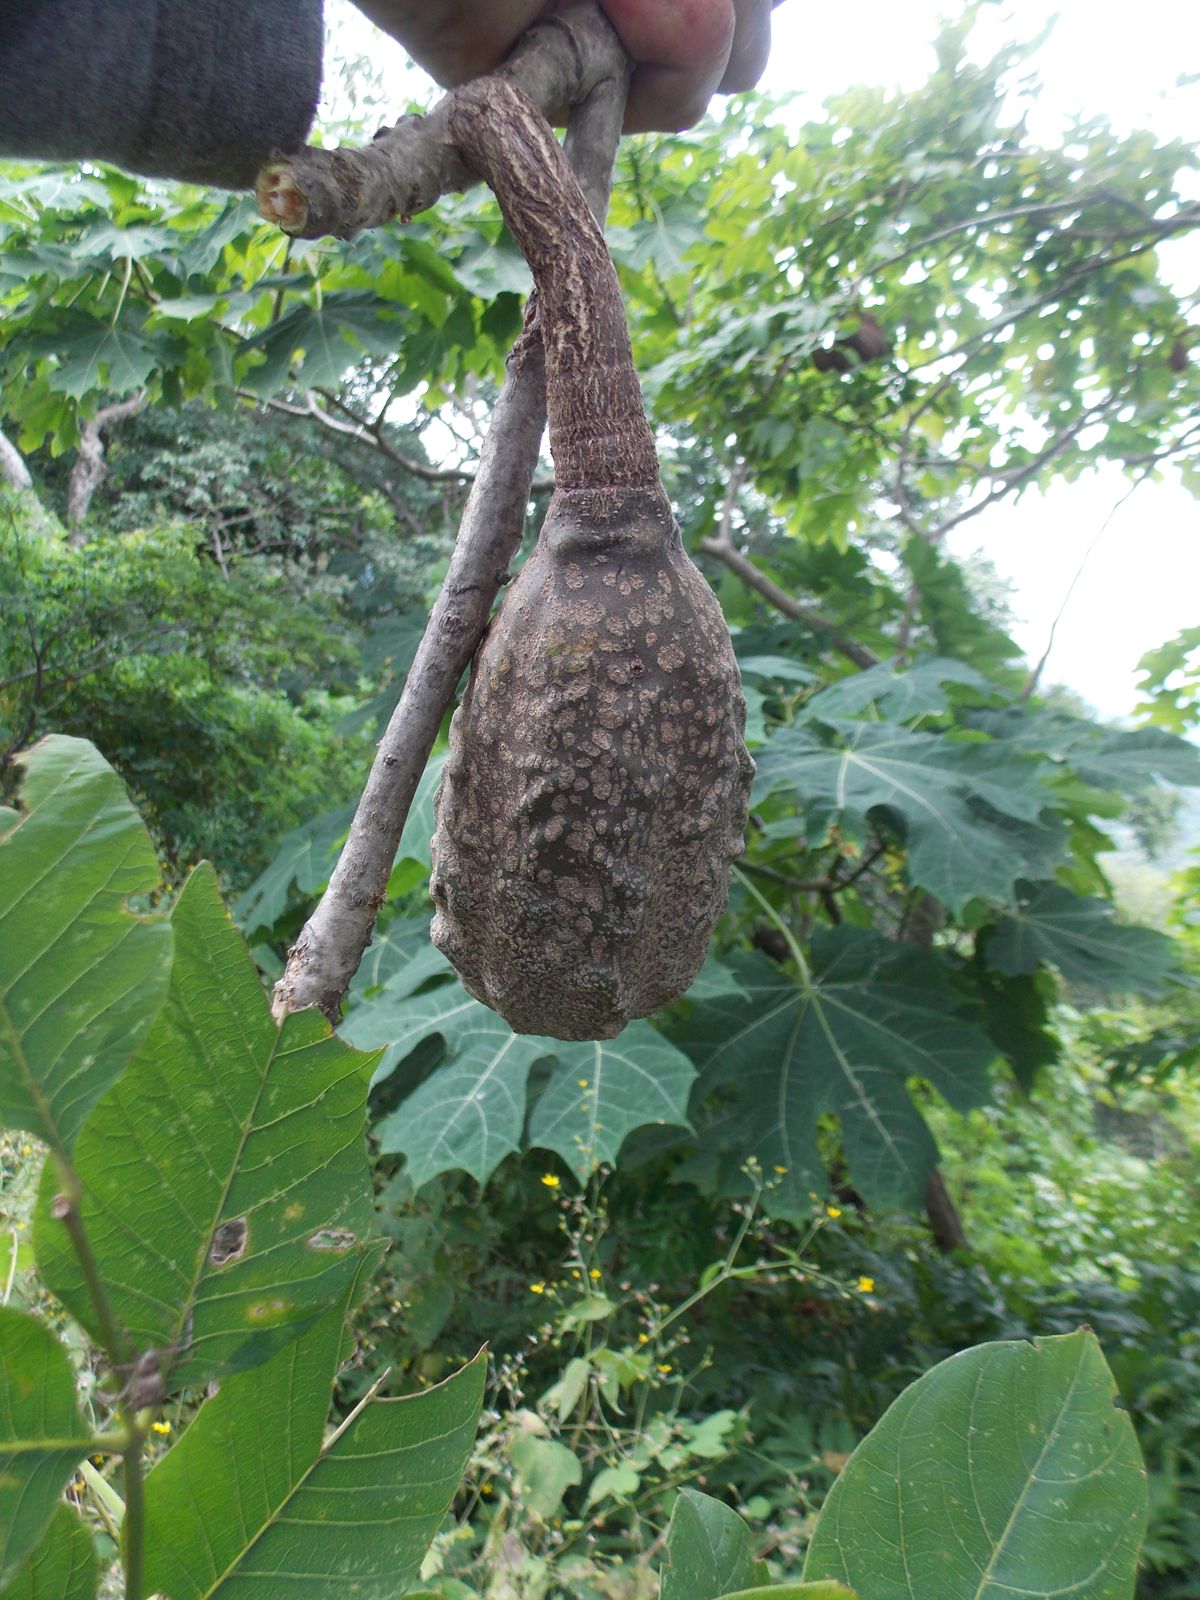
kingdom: Plantae
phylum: Tracheophyta
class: Magnoliopsida
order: Sapindales
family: Meliaceae
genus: Cedrela
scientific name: Cedrela salvadorensis
